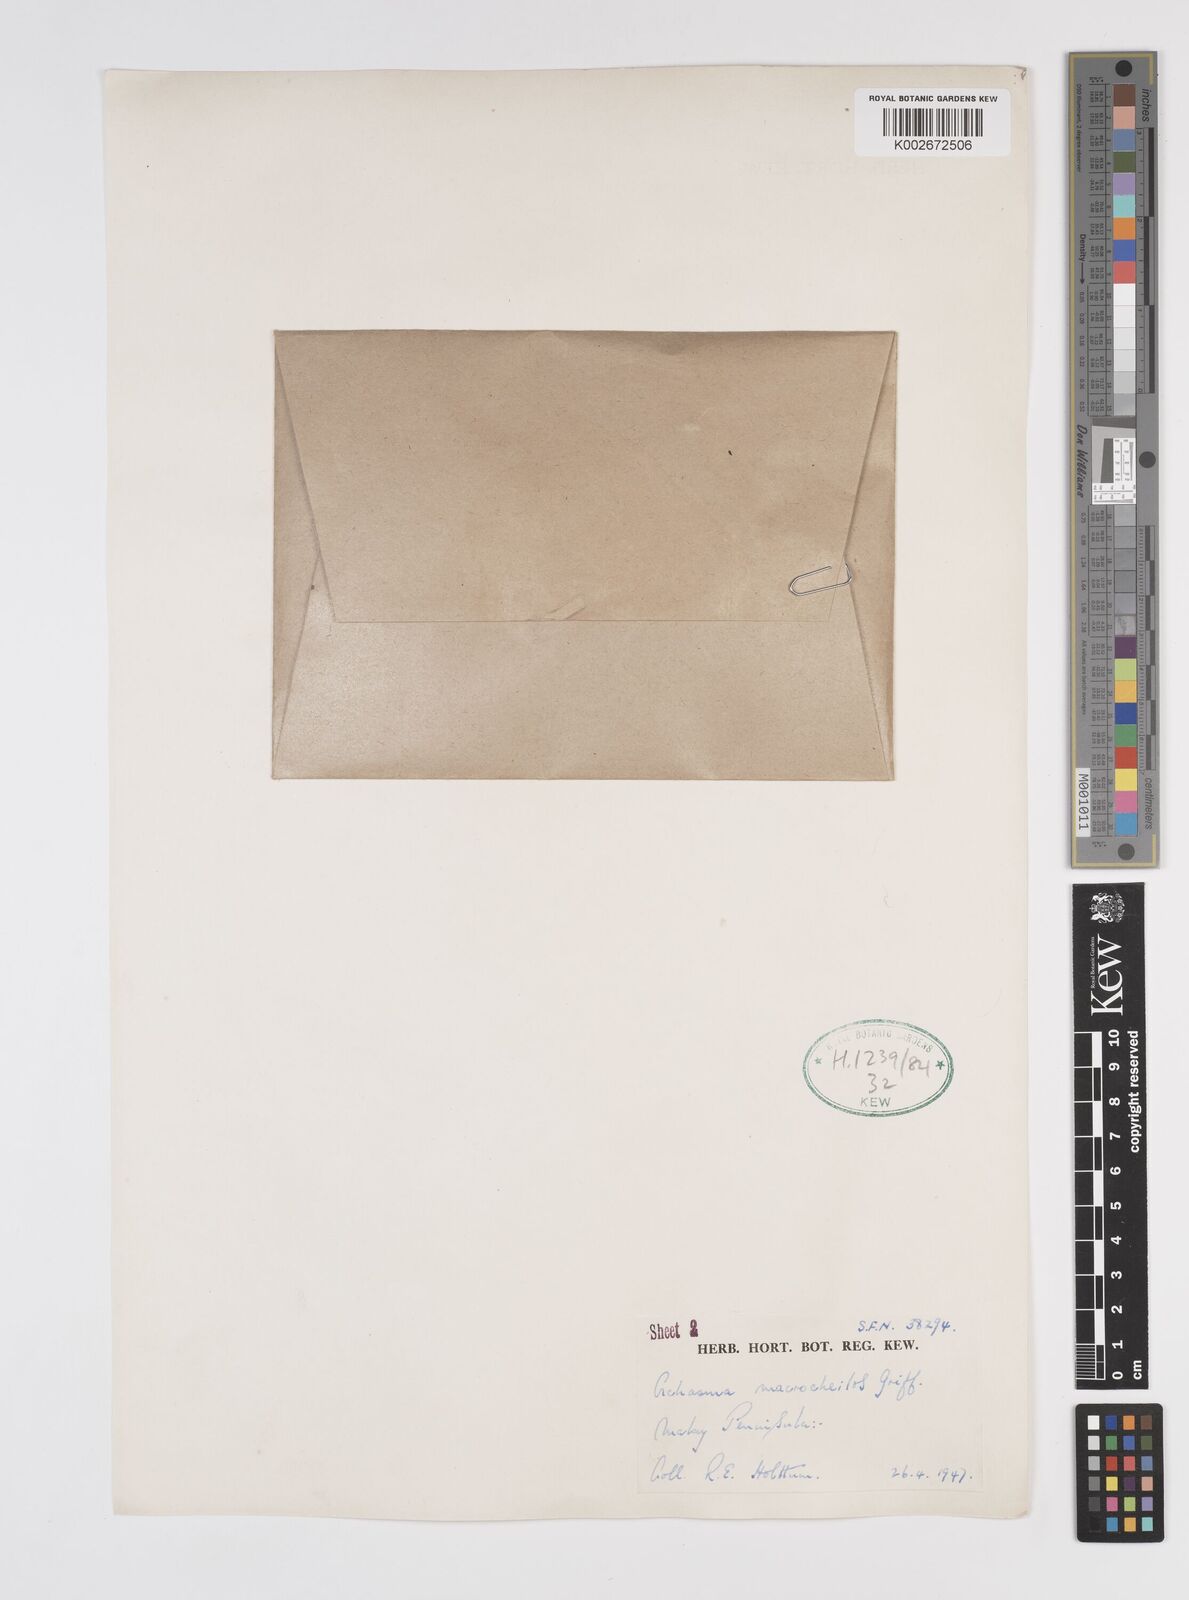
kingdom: Plantae
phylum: Tracheophyta
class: Liliopsida
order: Zingiberales
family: Zingiberaceae
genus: Etlingera
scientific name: Etlingera punicea
